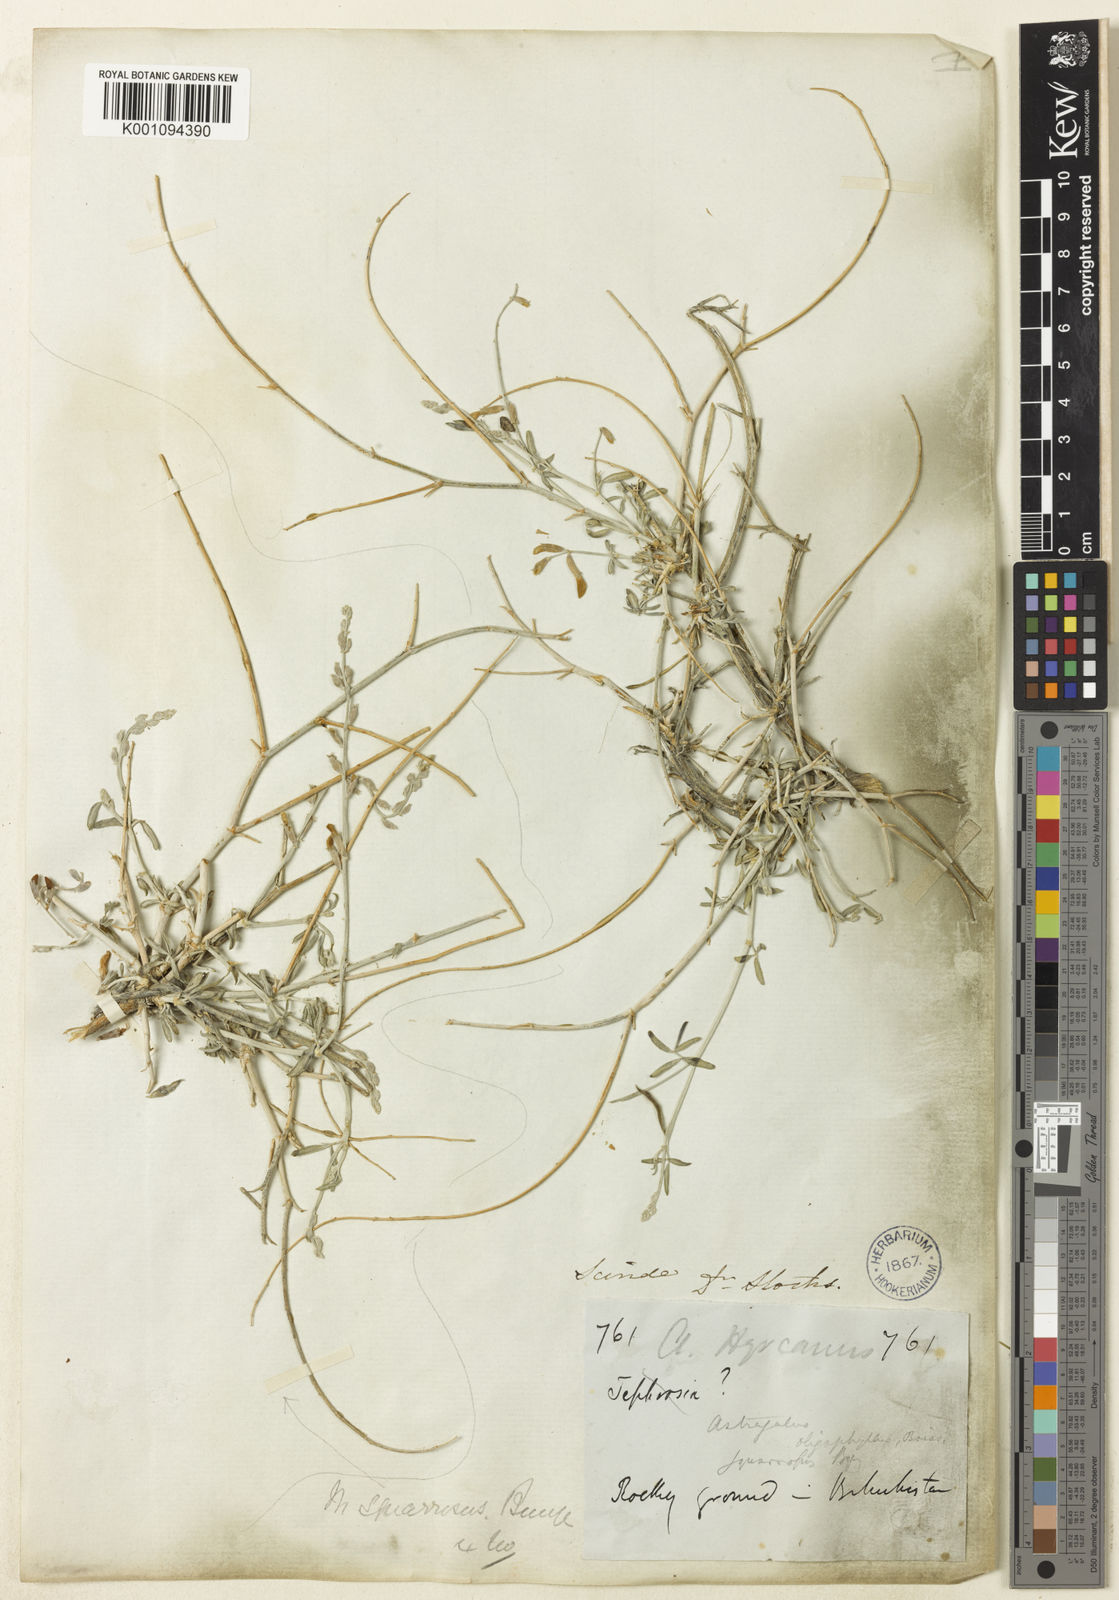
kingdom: Plantae
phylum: Tracheophyta
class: Magnoliopsida
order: Fabales
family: Fabaceae
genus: Astragalus
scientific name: Astragalus
